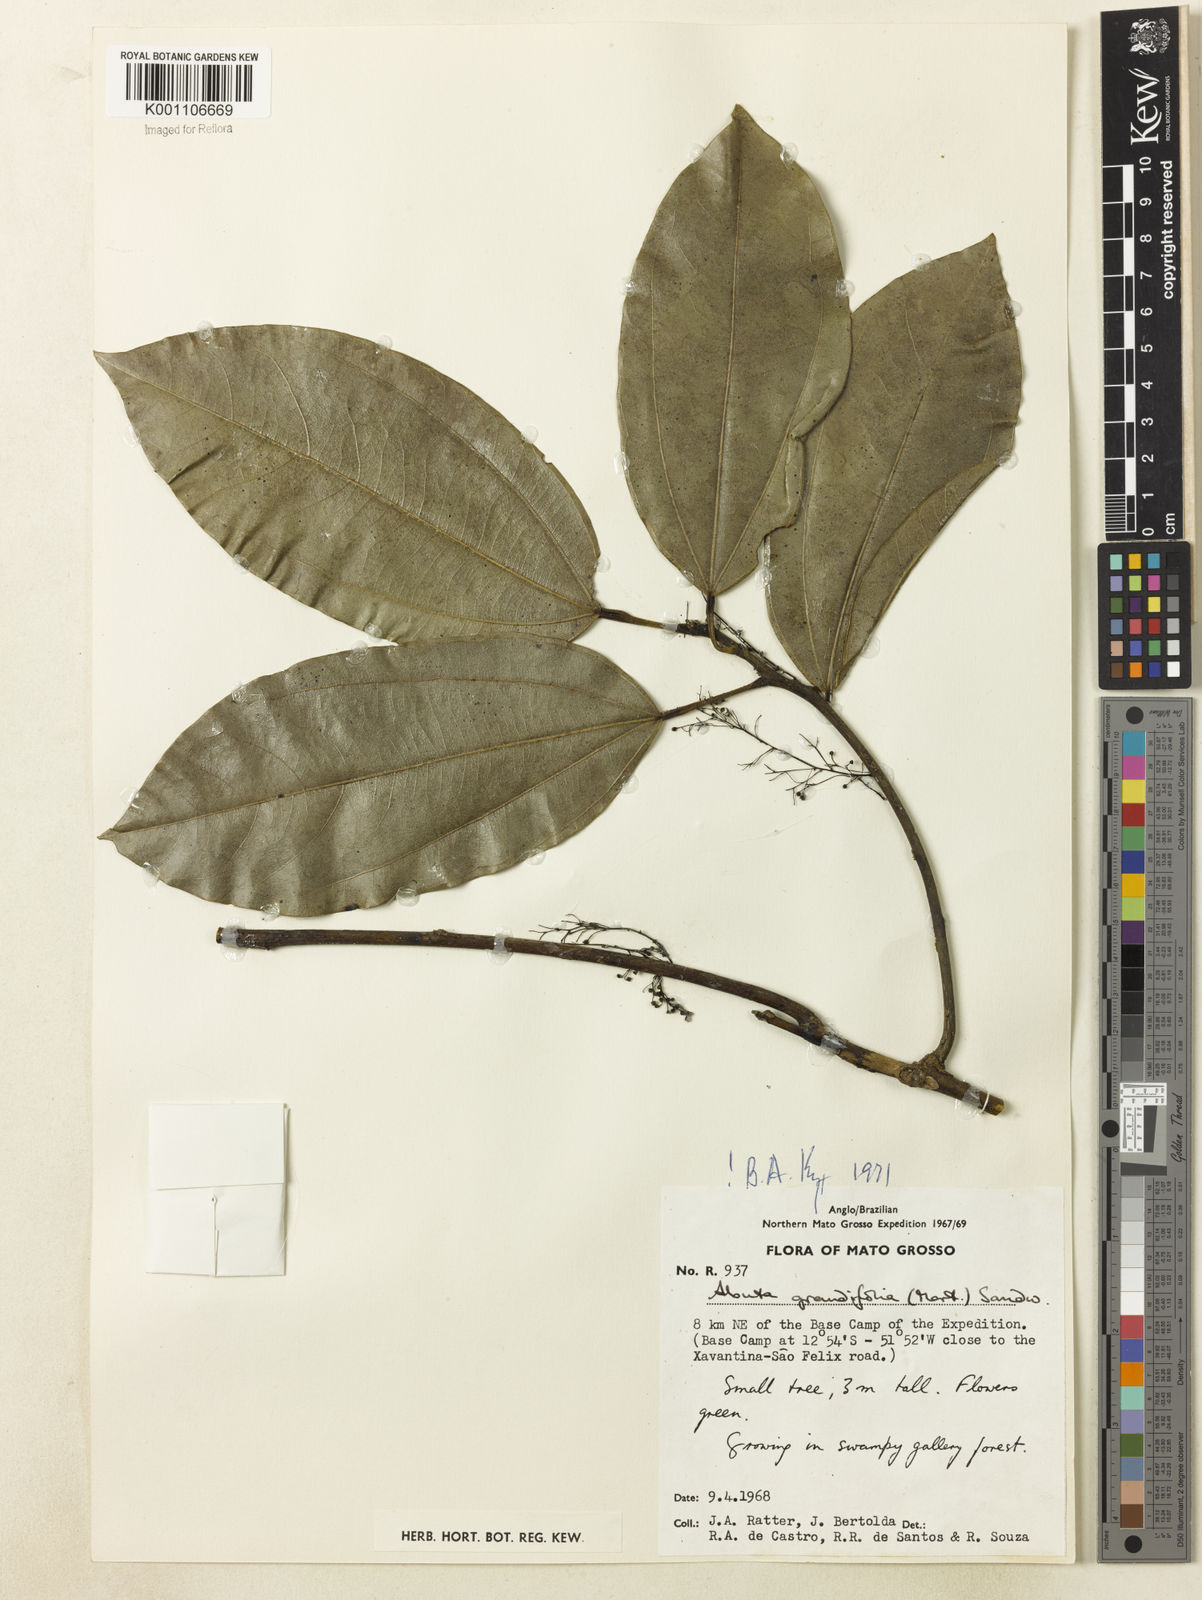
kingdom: Plantae
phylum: Tracheophyta
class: Magnoliopsida
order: Ranunculales
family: Menispermaceae
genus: Abuta
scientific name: Abuta grandifolia
